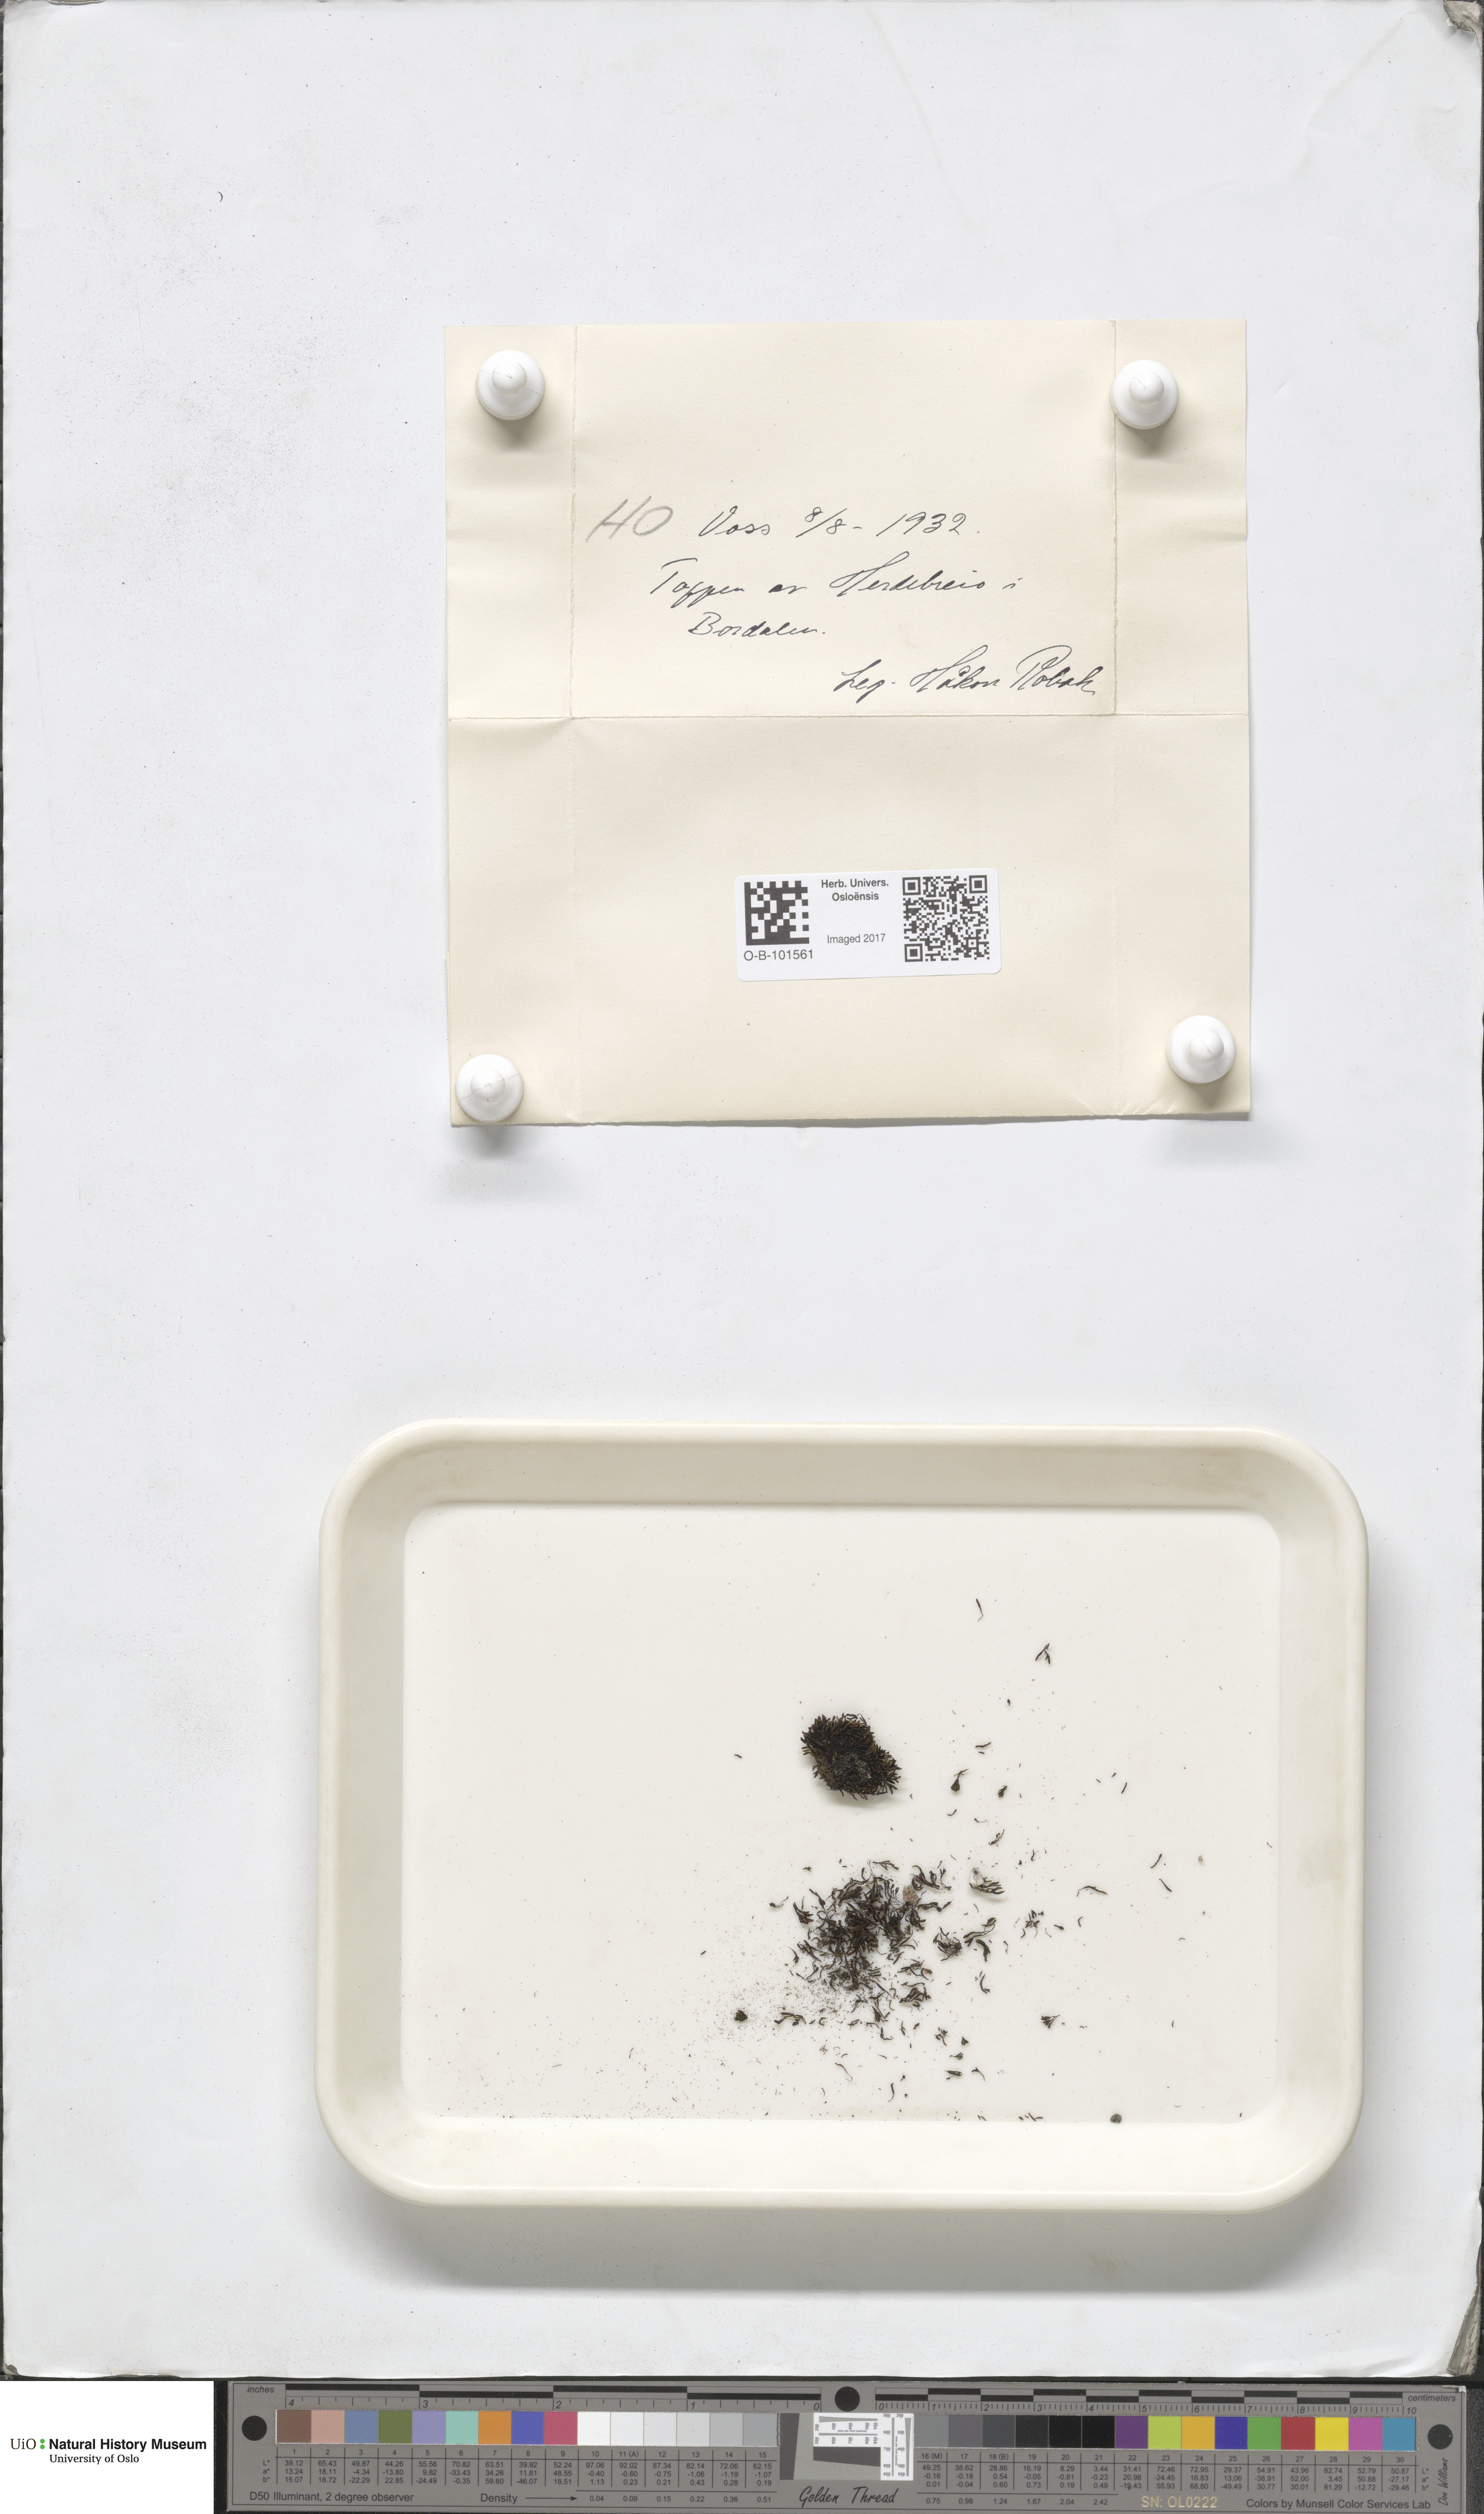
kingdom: Plantae
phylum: Bryophyta
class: Andreaeopsida
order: Andreaeales
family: Andreaeaceae
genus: Andreaea
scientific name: Andreaea rupestris
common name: Black rock moss
